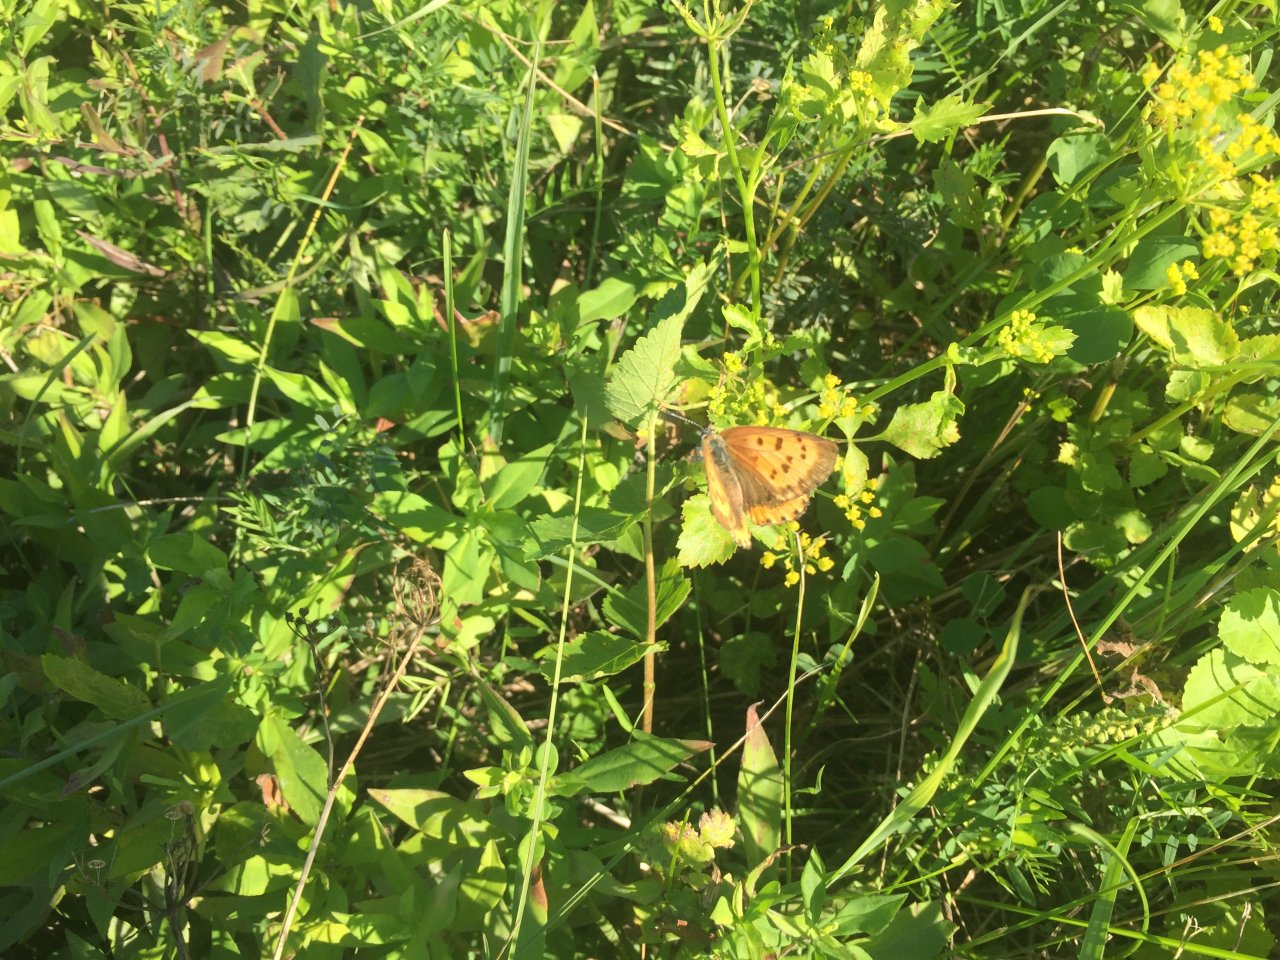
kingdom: Animalia
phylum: Arthropoda
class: Insecta
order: Lepidoptera
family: Sesiidae
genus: Sesia
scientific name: Sesia Lycaena hyllus
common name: Bronze Copper
